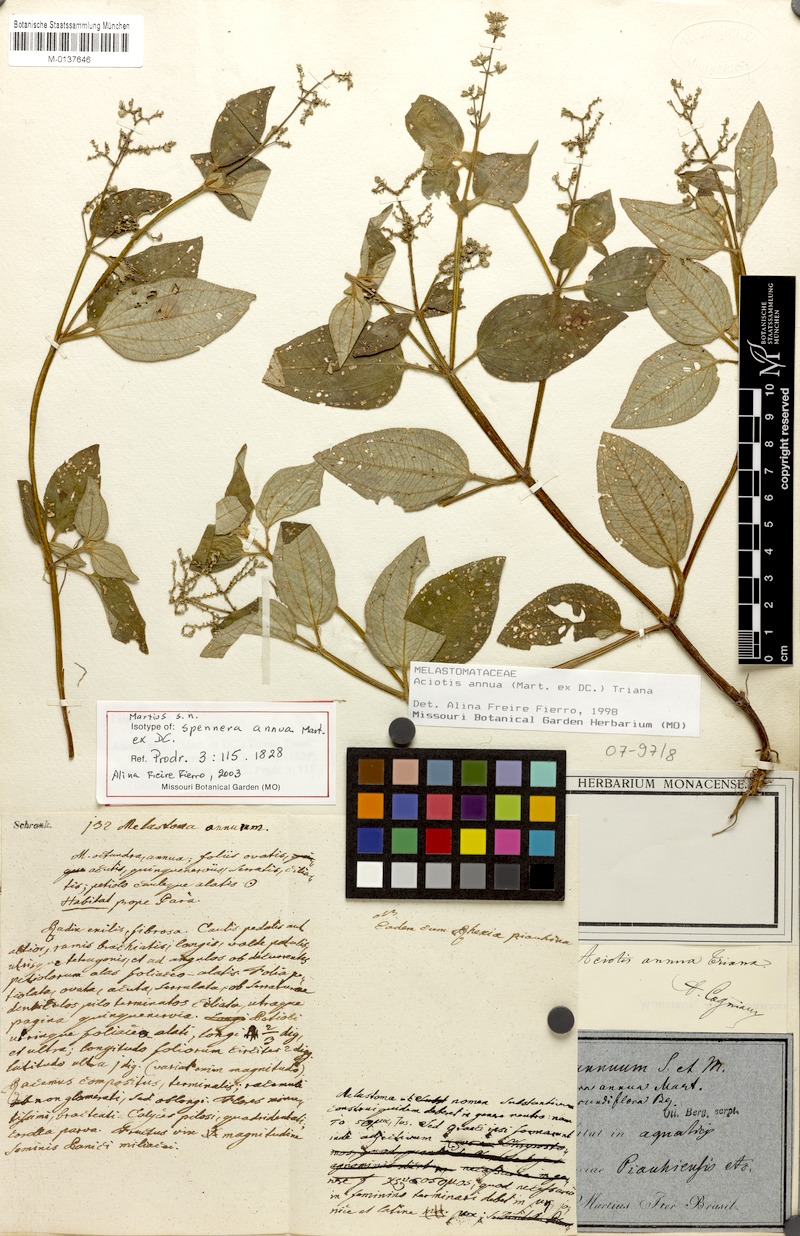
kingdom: Plantae
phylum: Tracheophyta
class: Magnoliopsida
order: Myrtales
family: Melastomataceae
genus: Aciotis
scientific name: Aciotis annua
